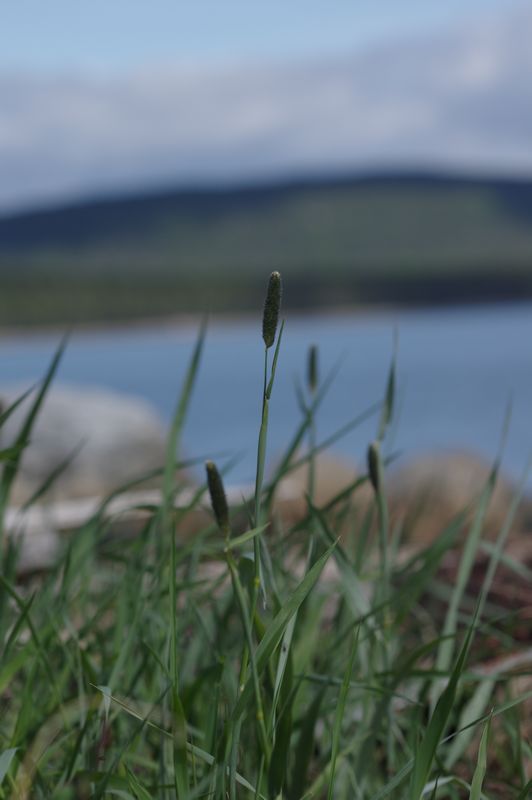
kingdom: Plantae
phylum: Tracheophyta
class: Liliopsida
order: Poales
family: Poaceae
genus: Alopecurus
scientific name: Alopecurus arundinaceus
